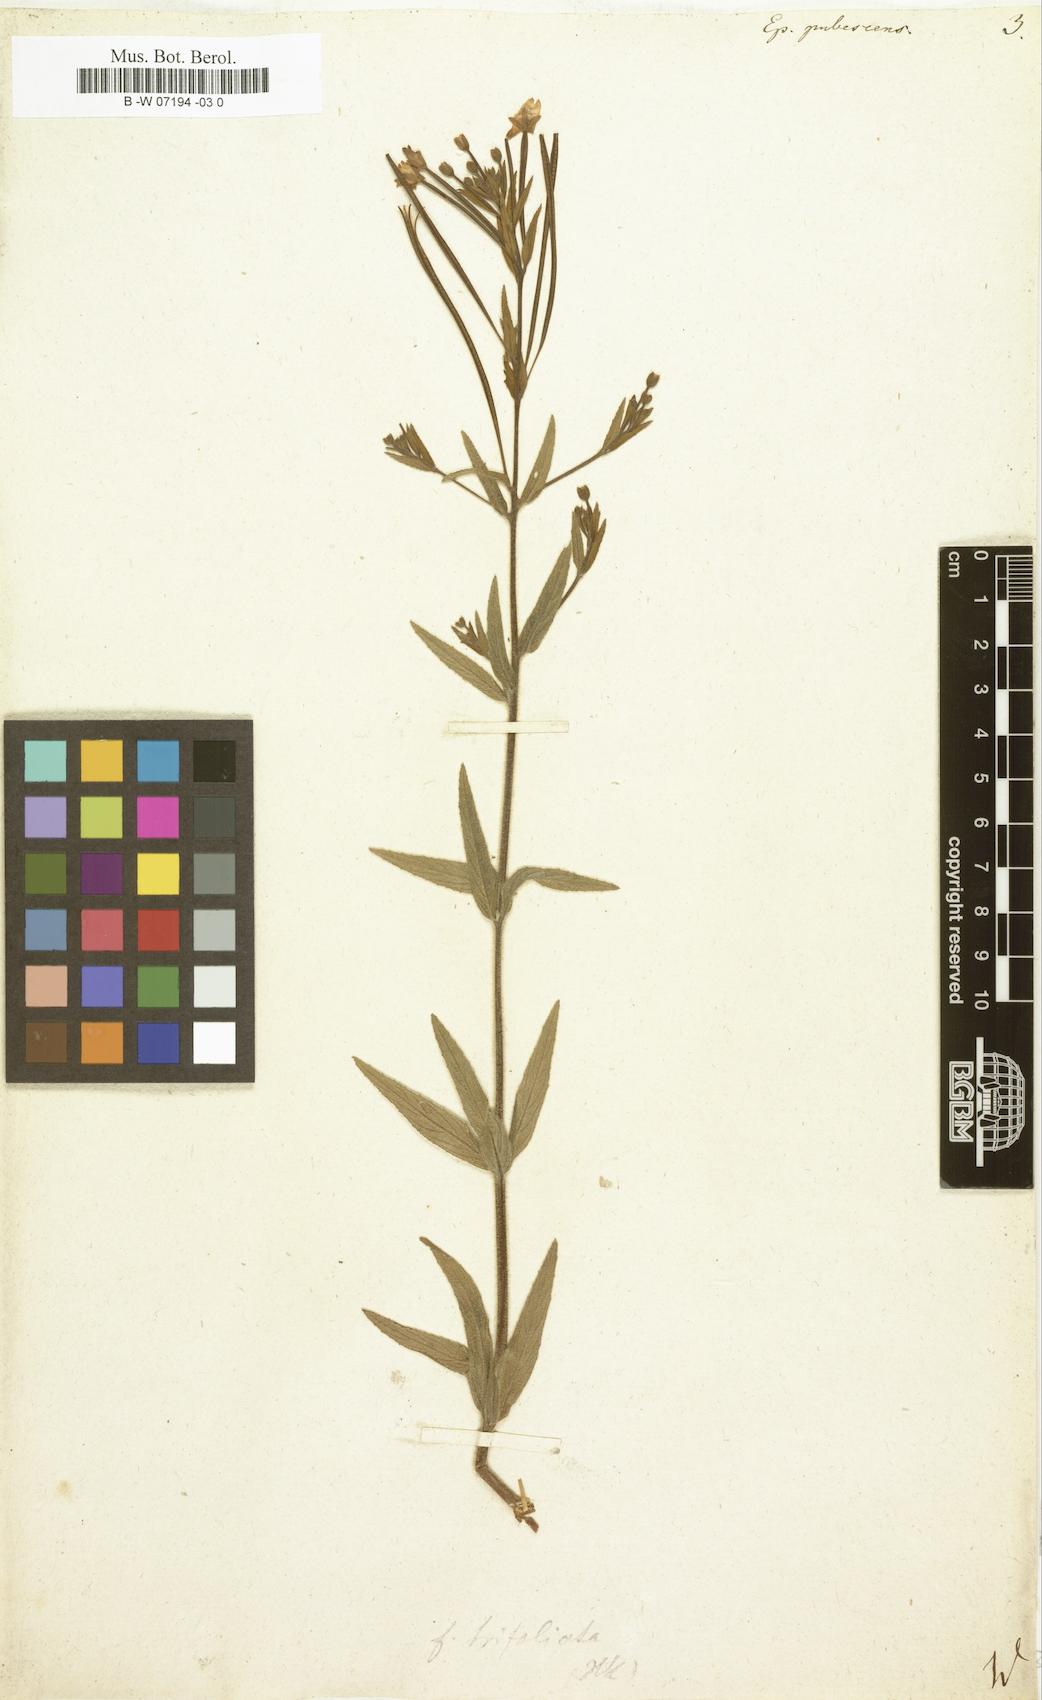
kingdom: Plantae
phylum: Tracheophyta
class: Magnoliopsida
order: Myrtales
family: Onagraceae
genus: Epilobium
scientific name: Epilobium
